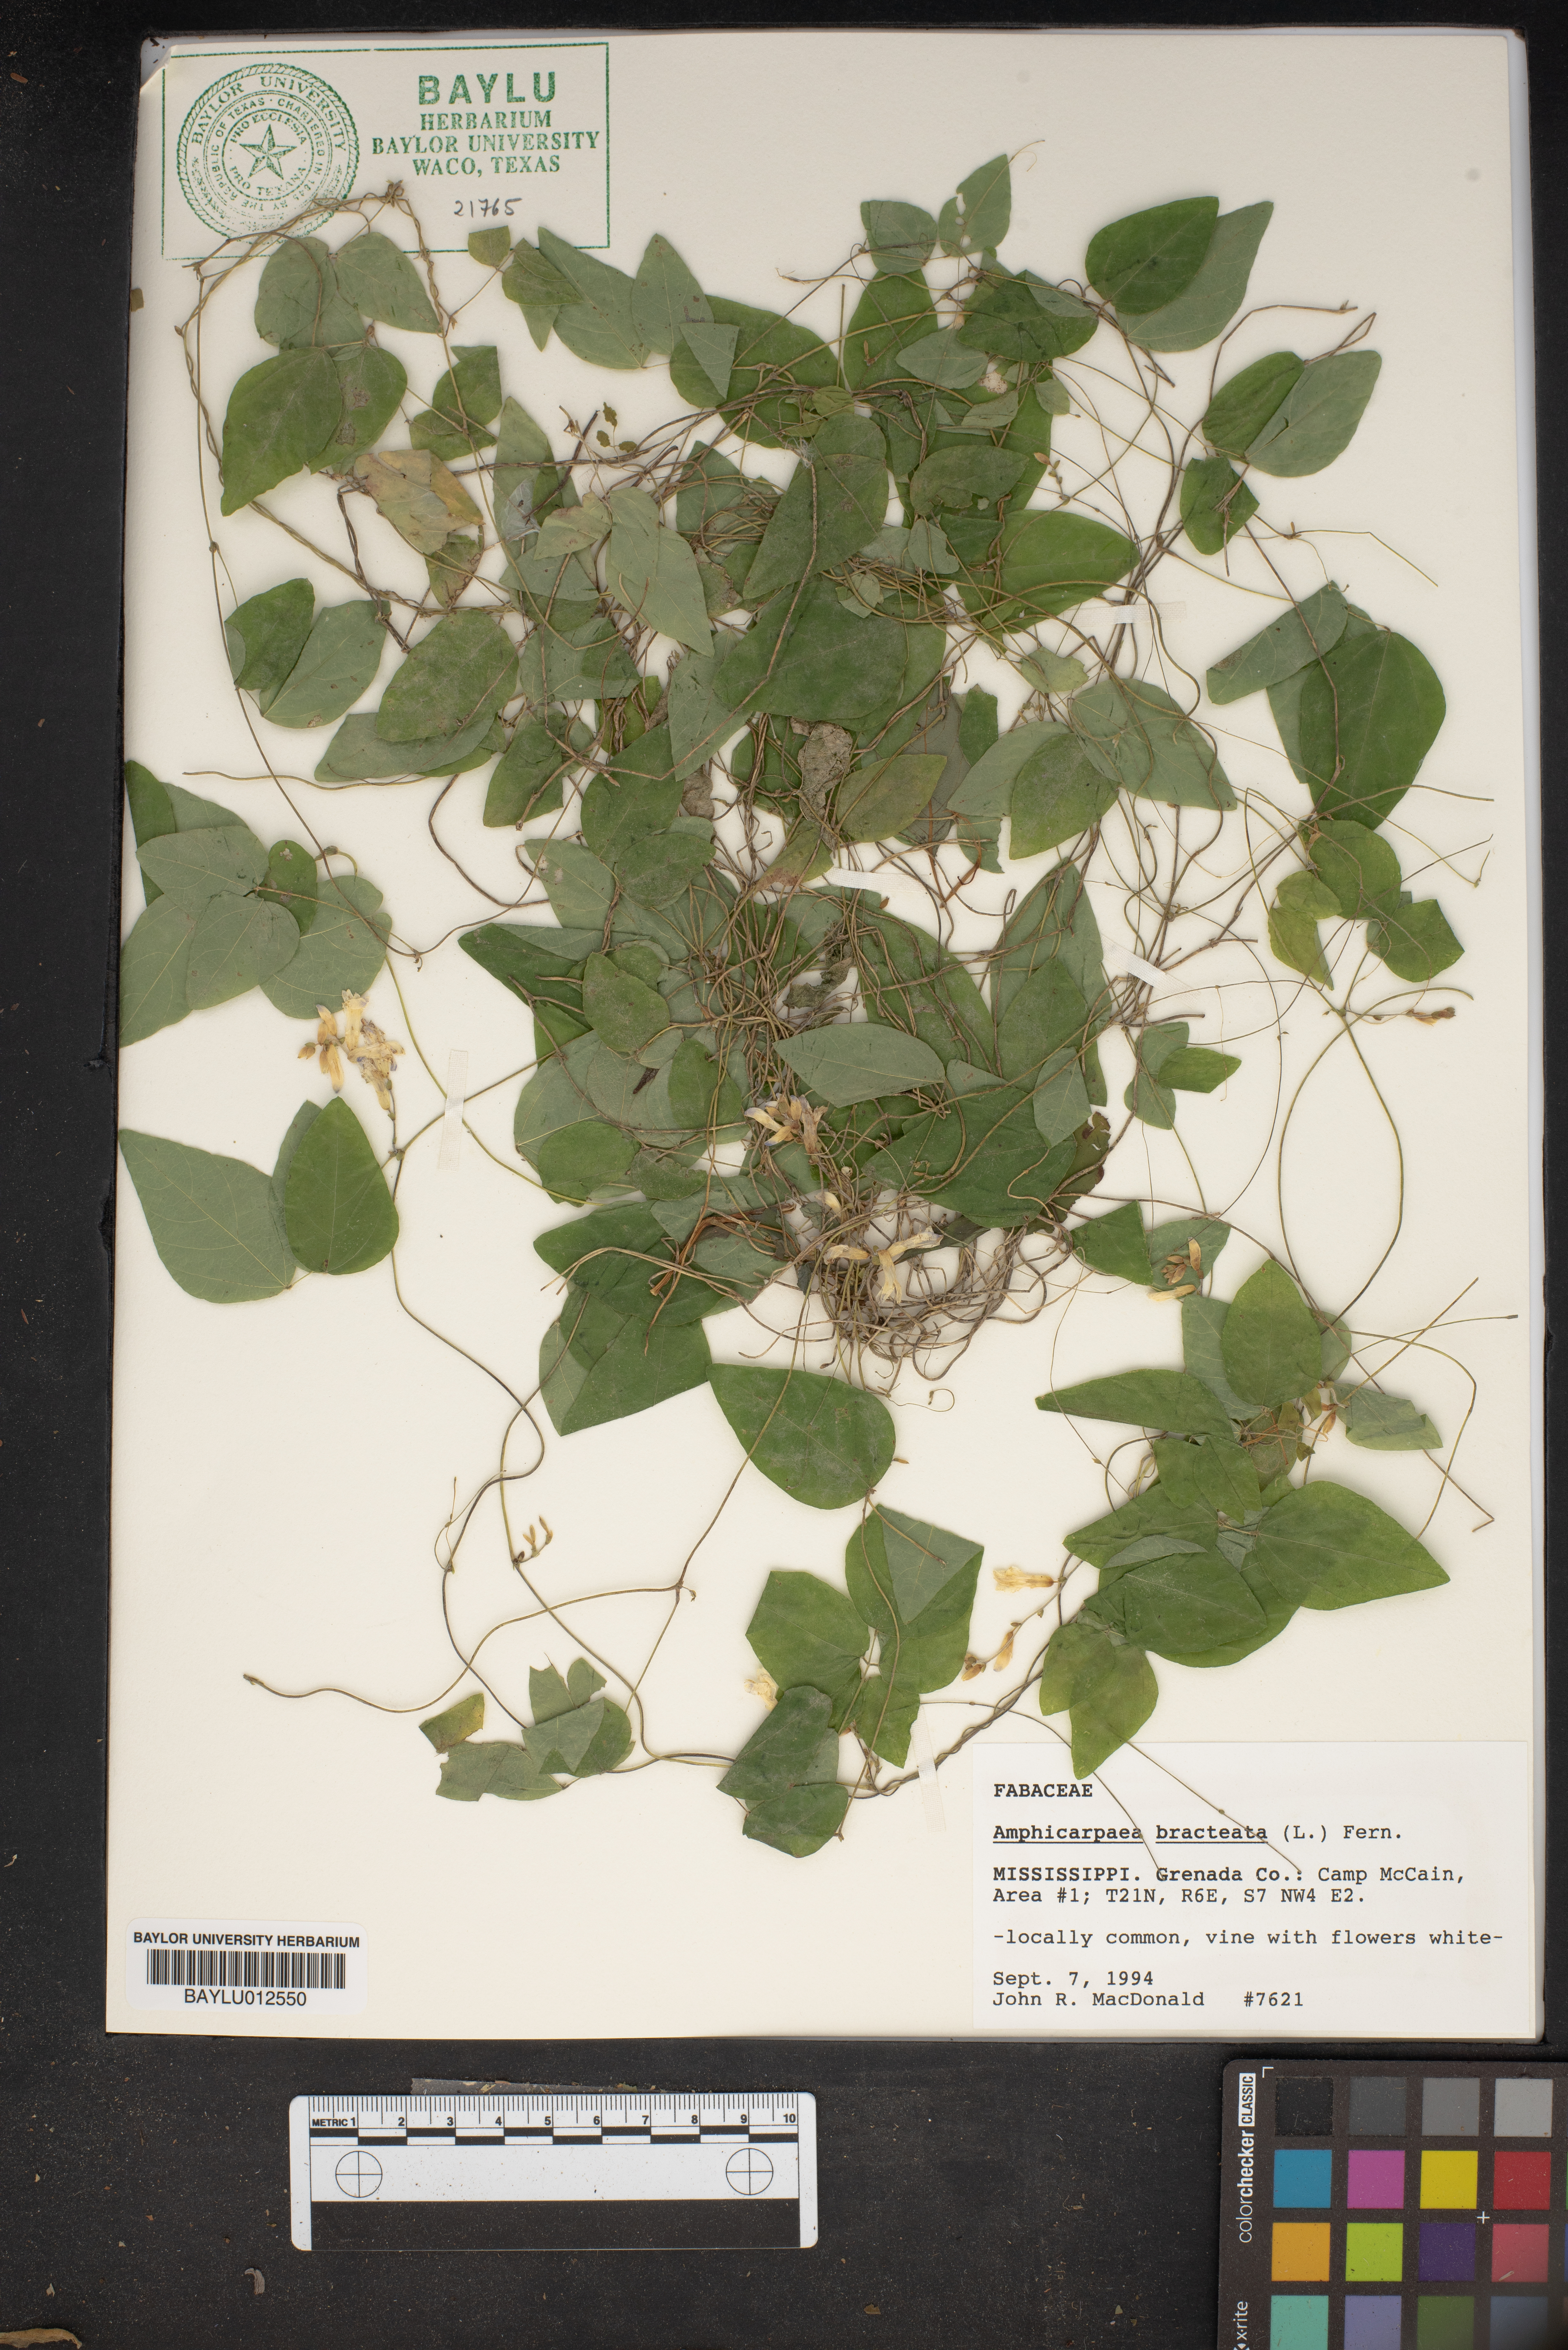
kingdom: Plantae
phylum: Tracheophyta
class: Magnoliopsida
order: Fabales
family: Fabaceae
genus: Amphicarpaea
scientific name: Amphicarpaea bracteata
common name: American hog peanut
